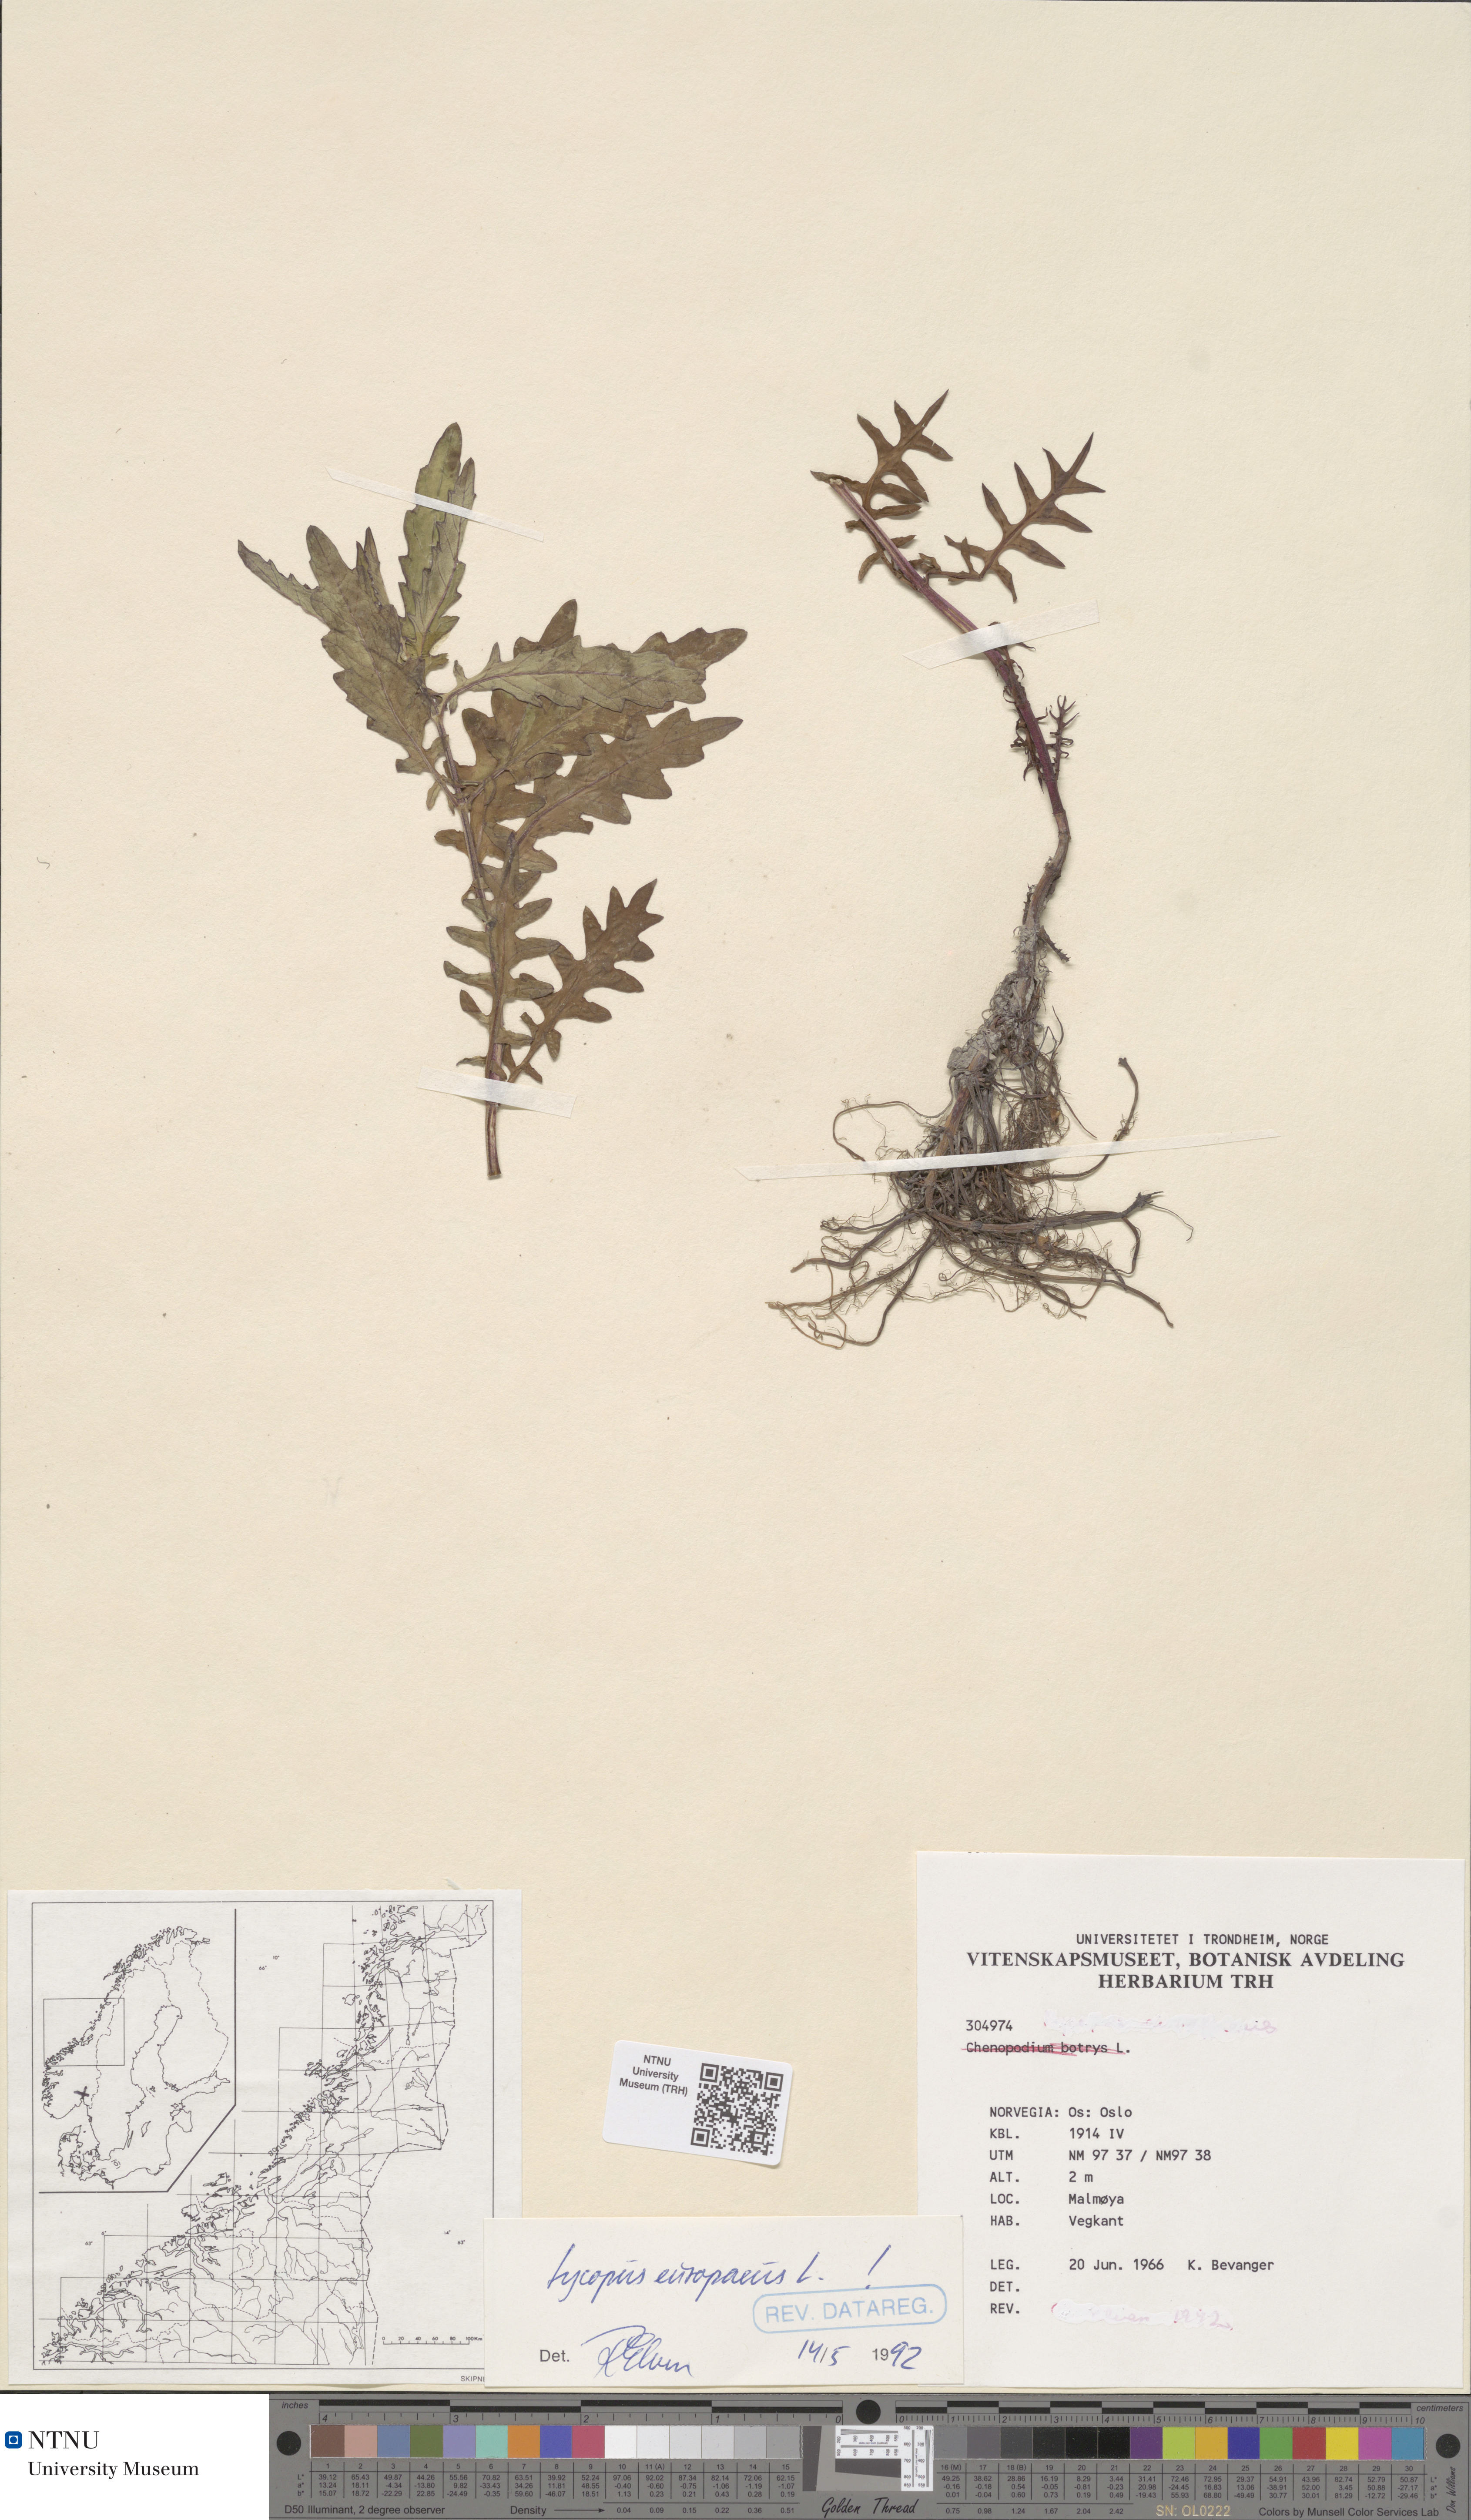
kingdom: Plantae
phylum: Tracheophyta
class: Magnoliopsida
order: Lamiales
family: Lamiaceae
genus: Lycopus
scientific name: Lycopus europaeus
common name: European bugleweed
